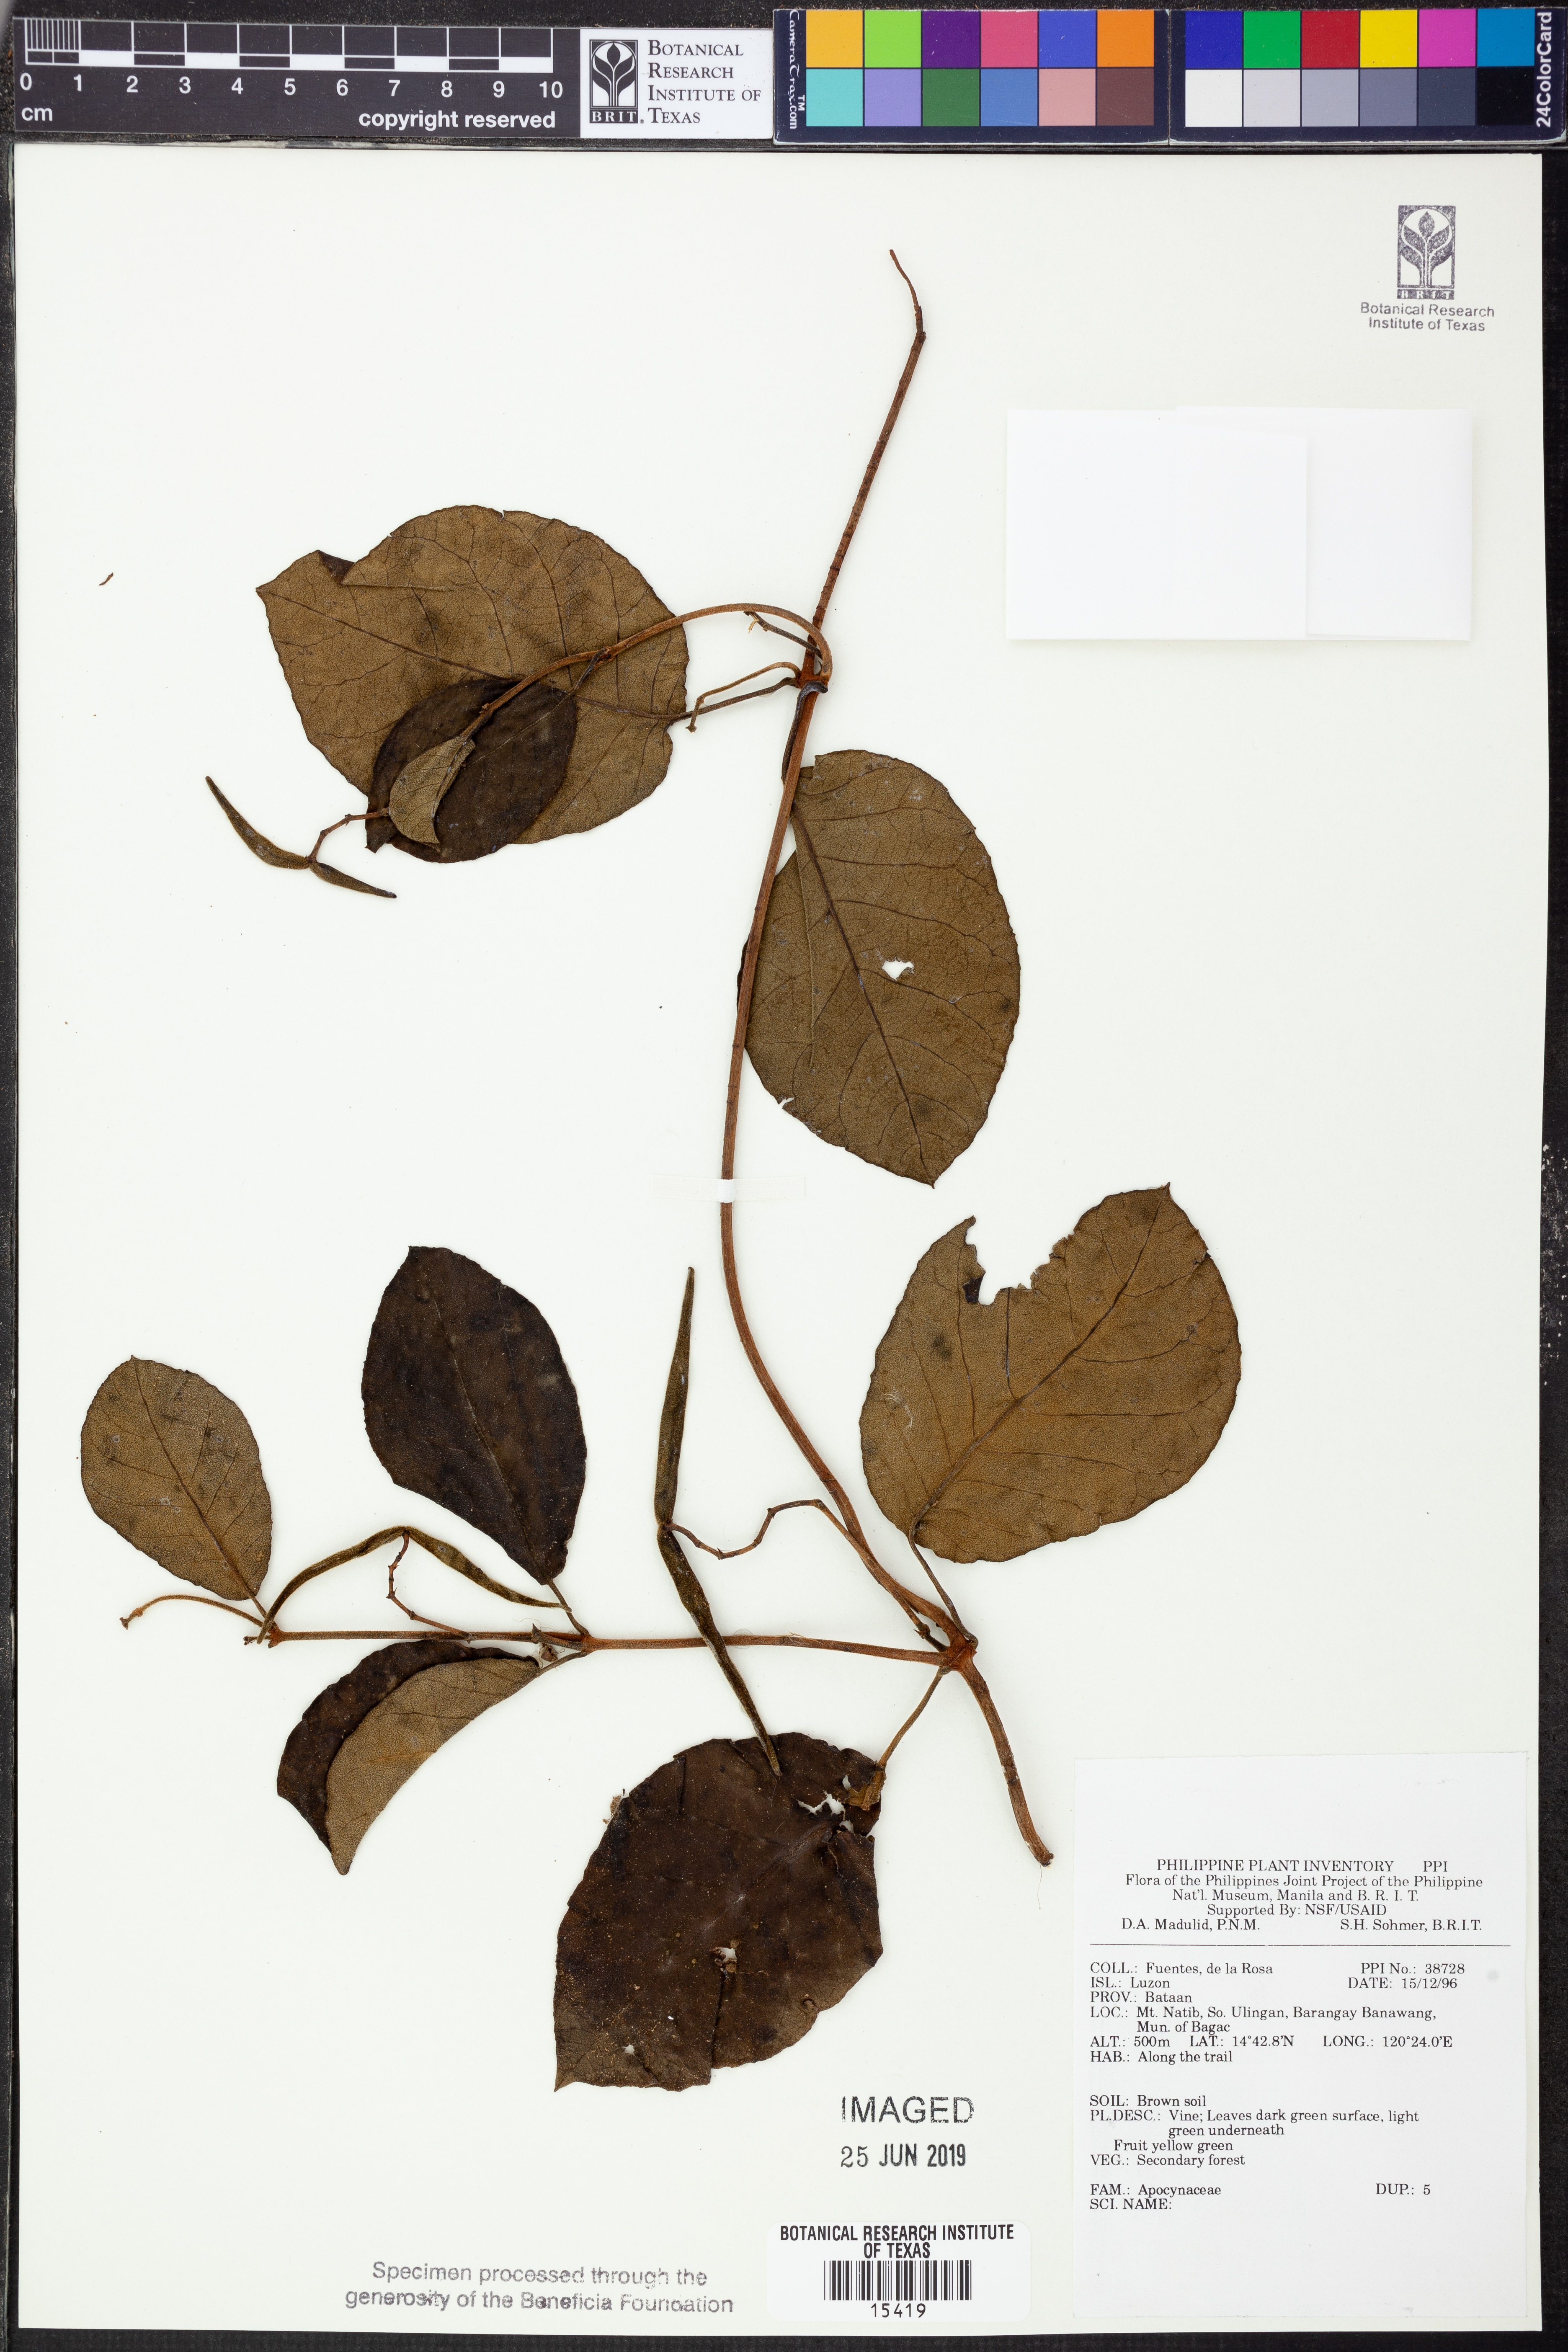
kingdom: Plantae
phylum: Tracheophyta
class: Magnoliopsida
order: Gentianales
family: Apocynaceae
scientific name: Apocynaceae
